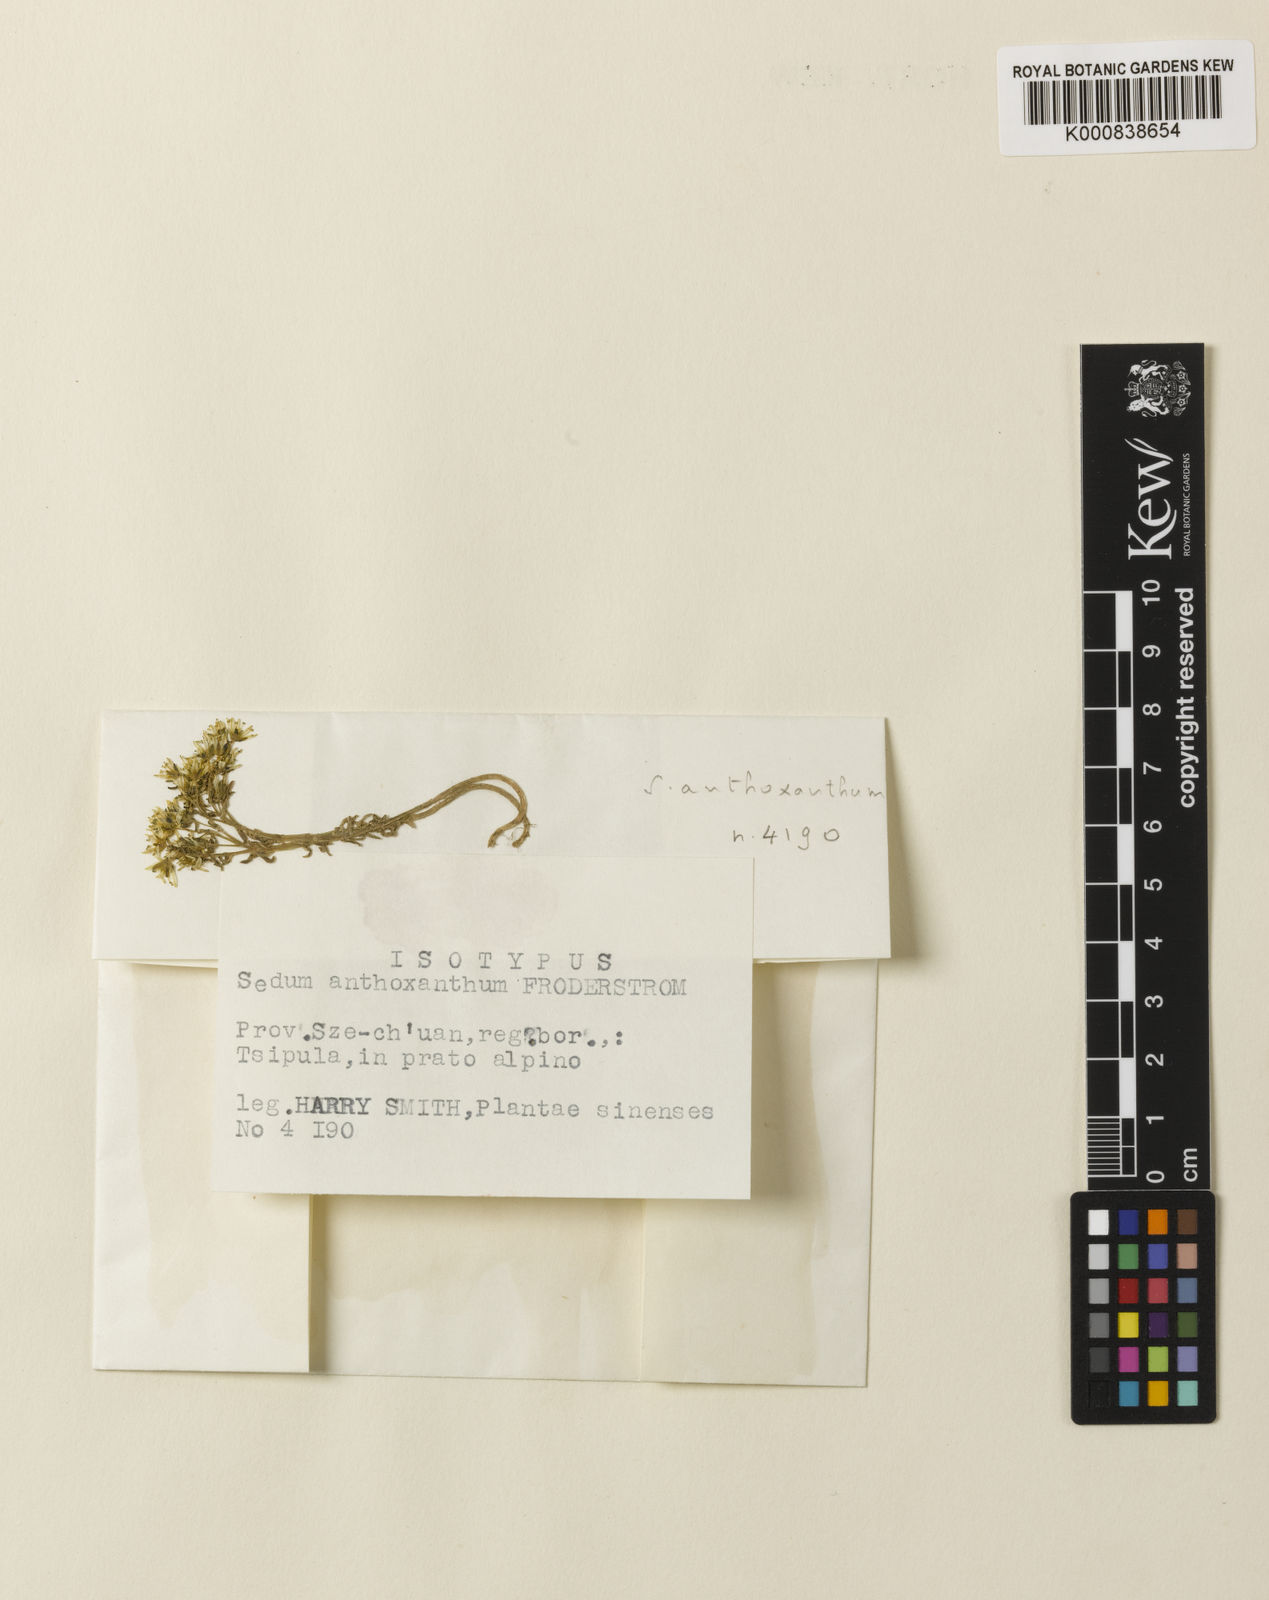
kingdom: Plantae
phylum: Tracheophyta
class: Magnoliopsida
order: Saxifragales
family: Crassulaceae
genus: Sedum
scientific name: Sedum perrotii
